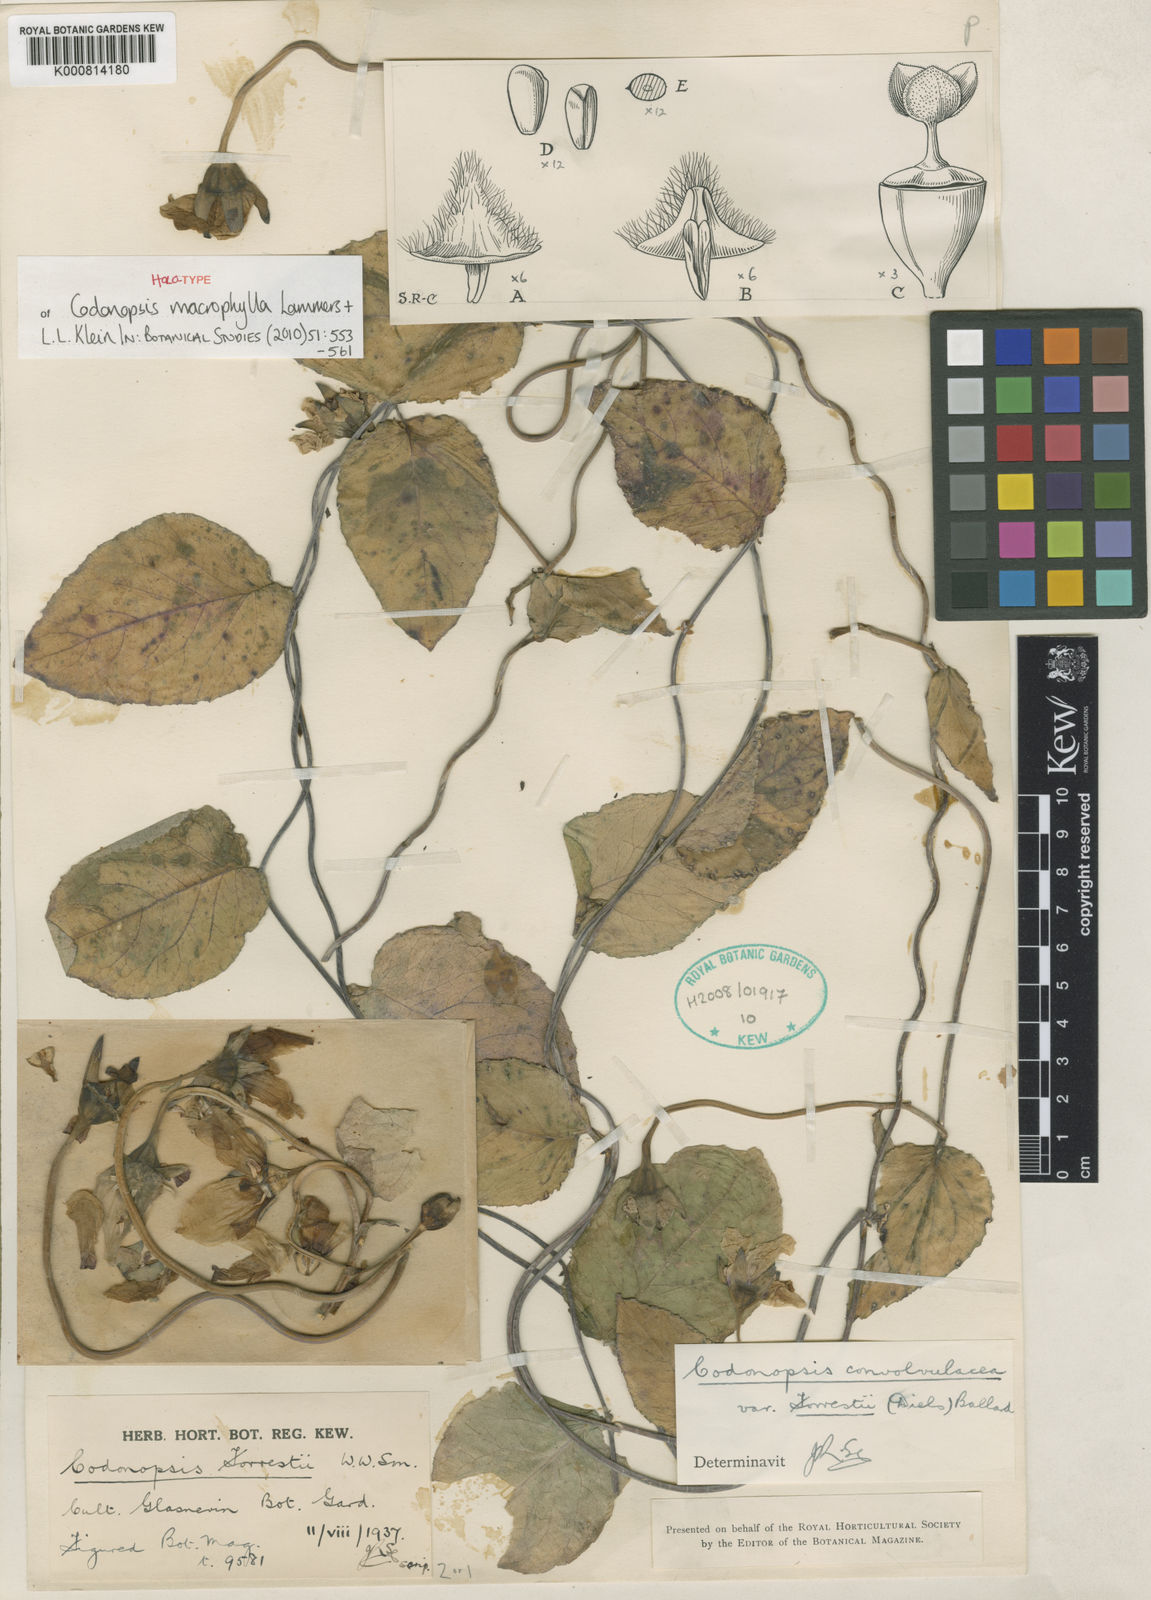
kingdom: Plantae
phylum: Tracheophyta
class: Magnoliopsida
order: Asterales
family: Campanulaceae
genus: Codonopsis
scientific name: Codonopsis macrophylla
